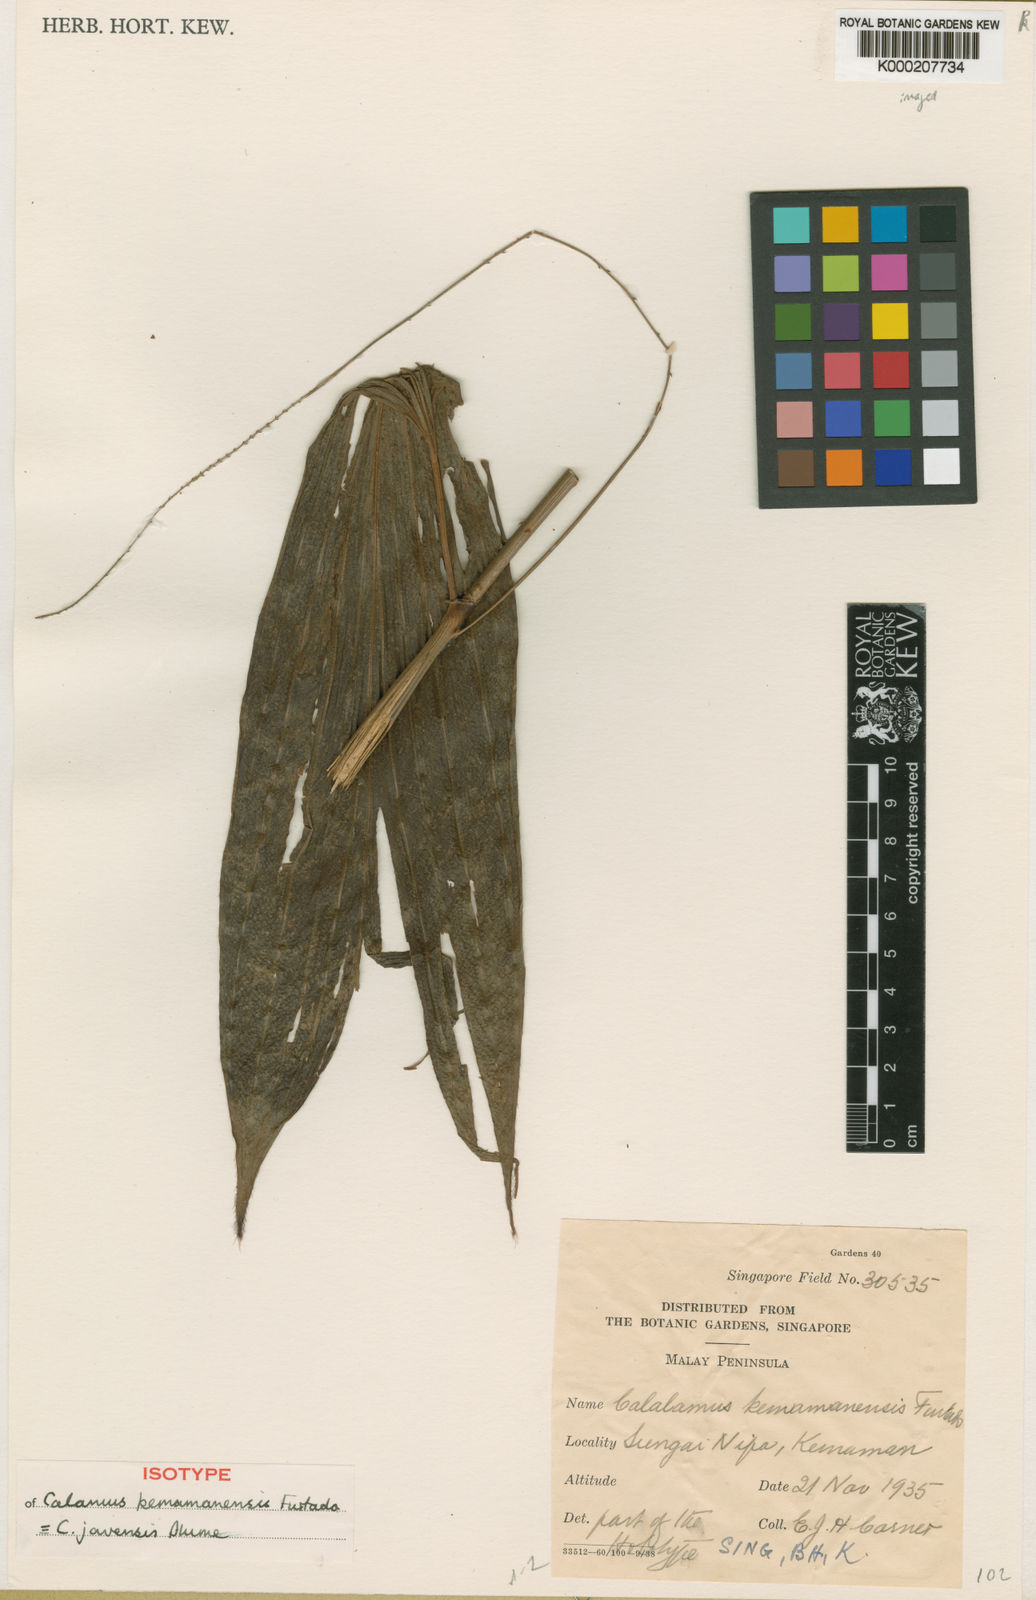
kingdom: Plantae
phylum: Tracheophyta
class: Liliopsida
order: Arecales
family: Arecaceae
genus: Calamus
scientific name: Calamus javensis
